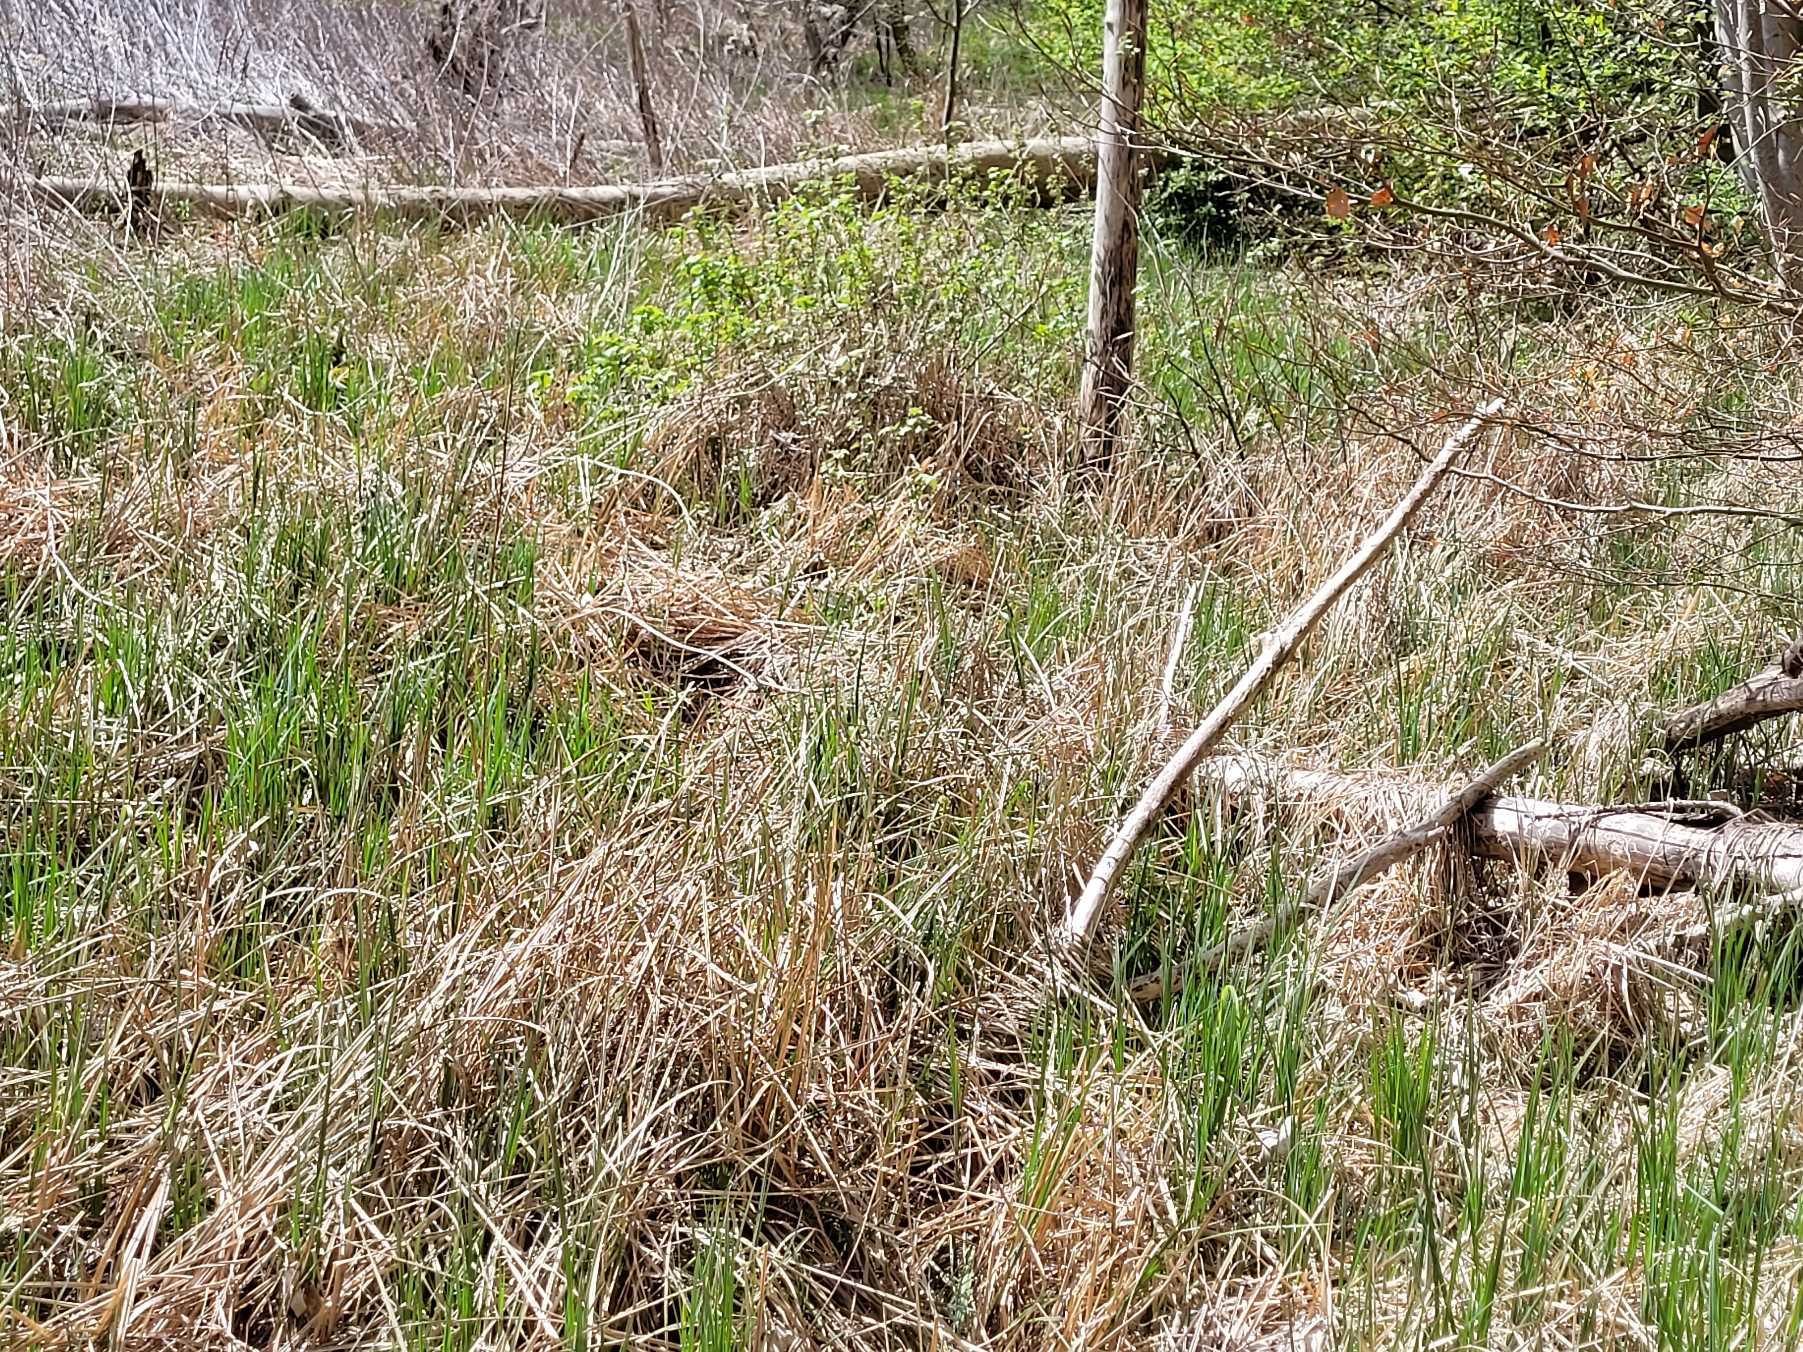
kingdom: Animalia
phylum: Arthropoda
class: Insecta
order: Lepidoptera
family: Pieridae
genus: Anthocharis
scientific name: Anthocharis cardamines
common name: Aurora
